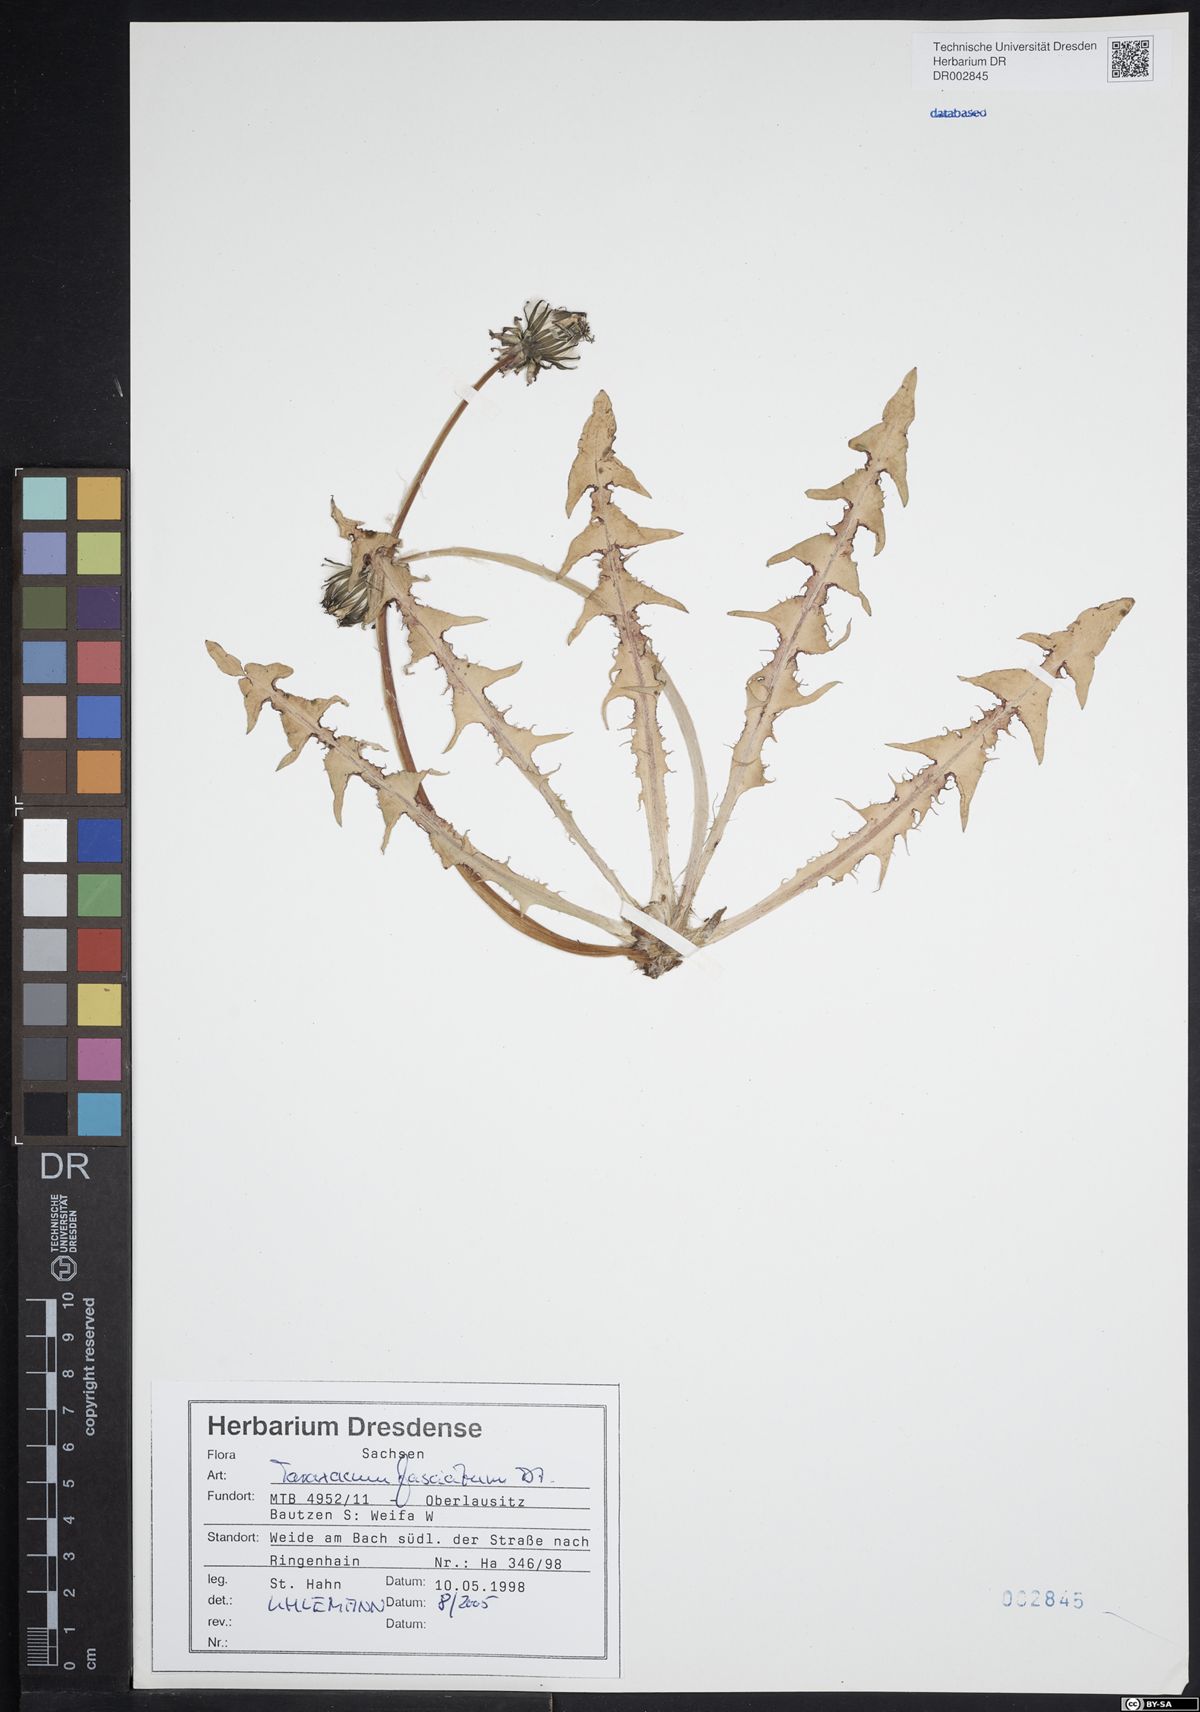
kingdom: Plantae
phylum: Tracheophyta
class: Magnoliopsida
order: Asterales
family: Asteraceae
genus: Taraxacum
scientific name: Taraxacum fasciatum
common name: Dense-bracted dandelion
